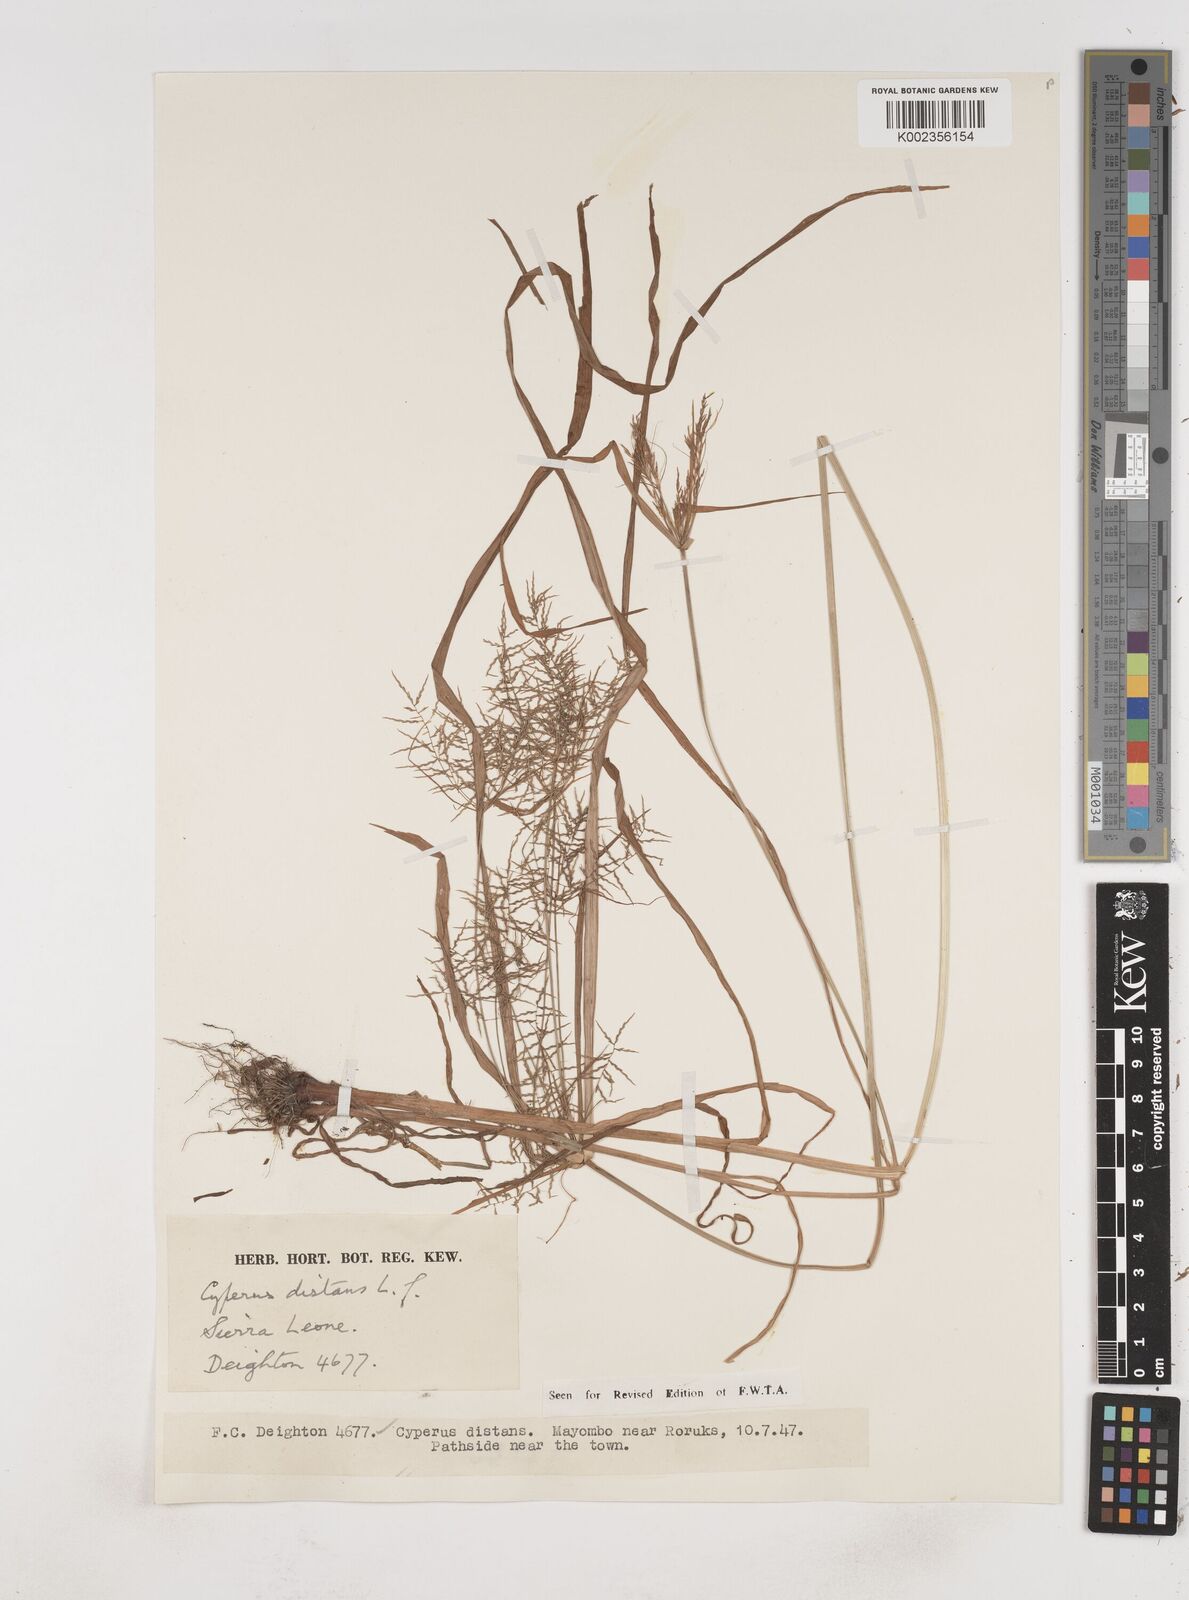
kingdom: Plantae
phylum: Tracheophyta
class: Liliopsida
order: Poales
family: Cyperaceae
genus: Cyperus
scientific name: Cyperus distans
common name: Slender cyperus
